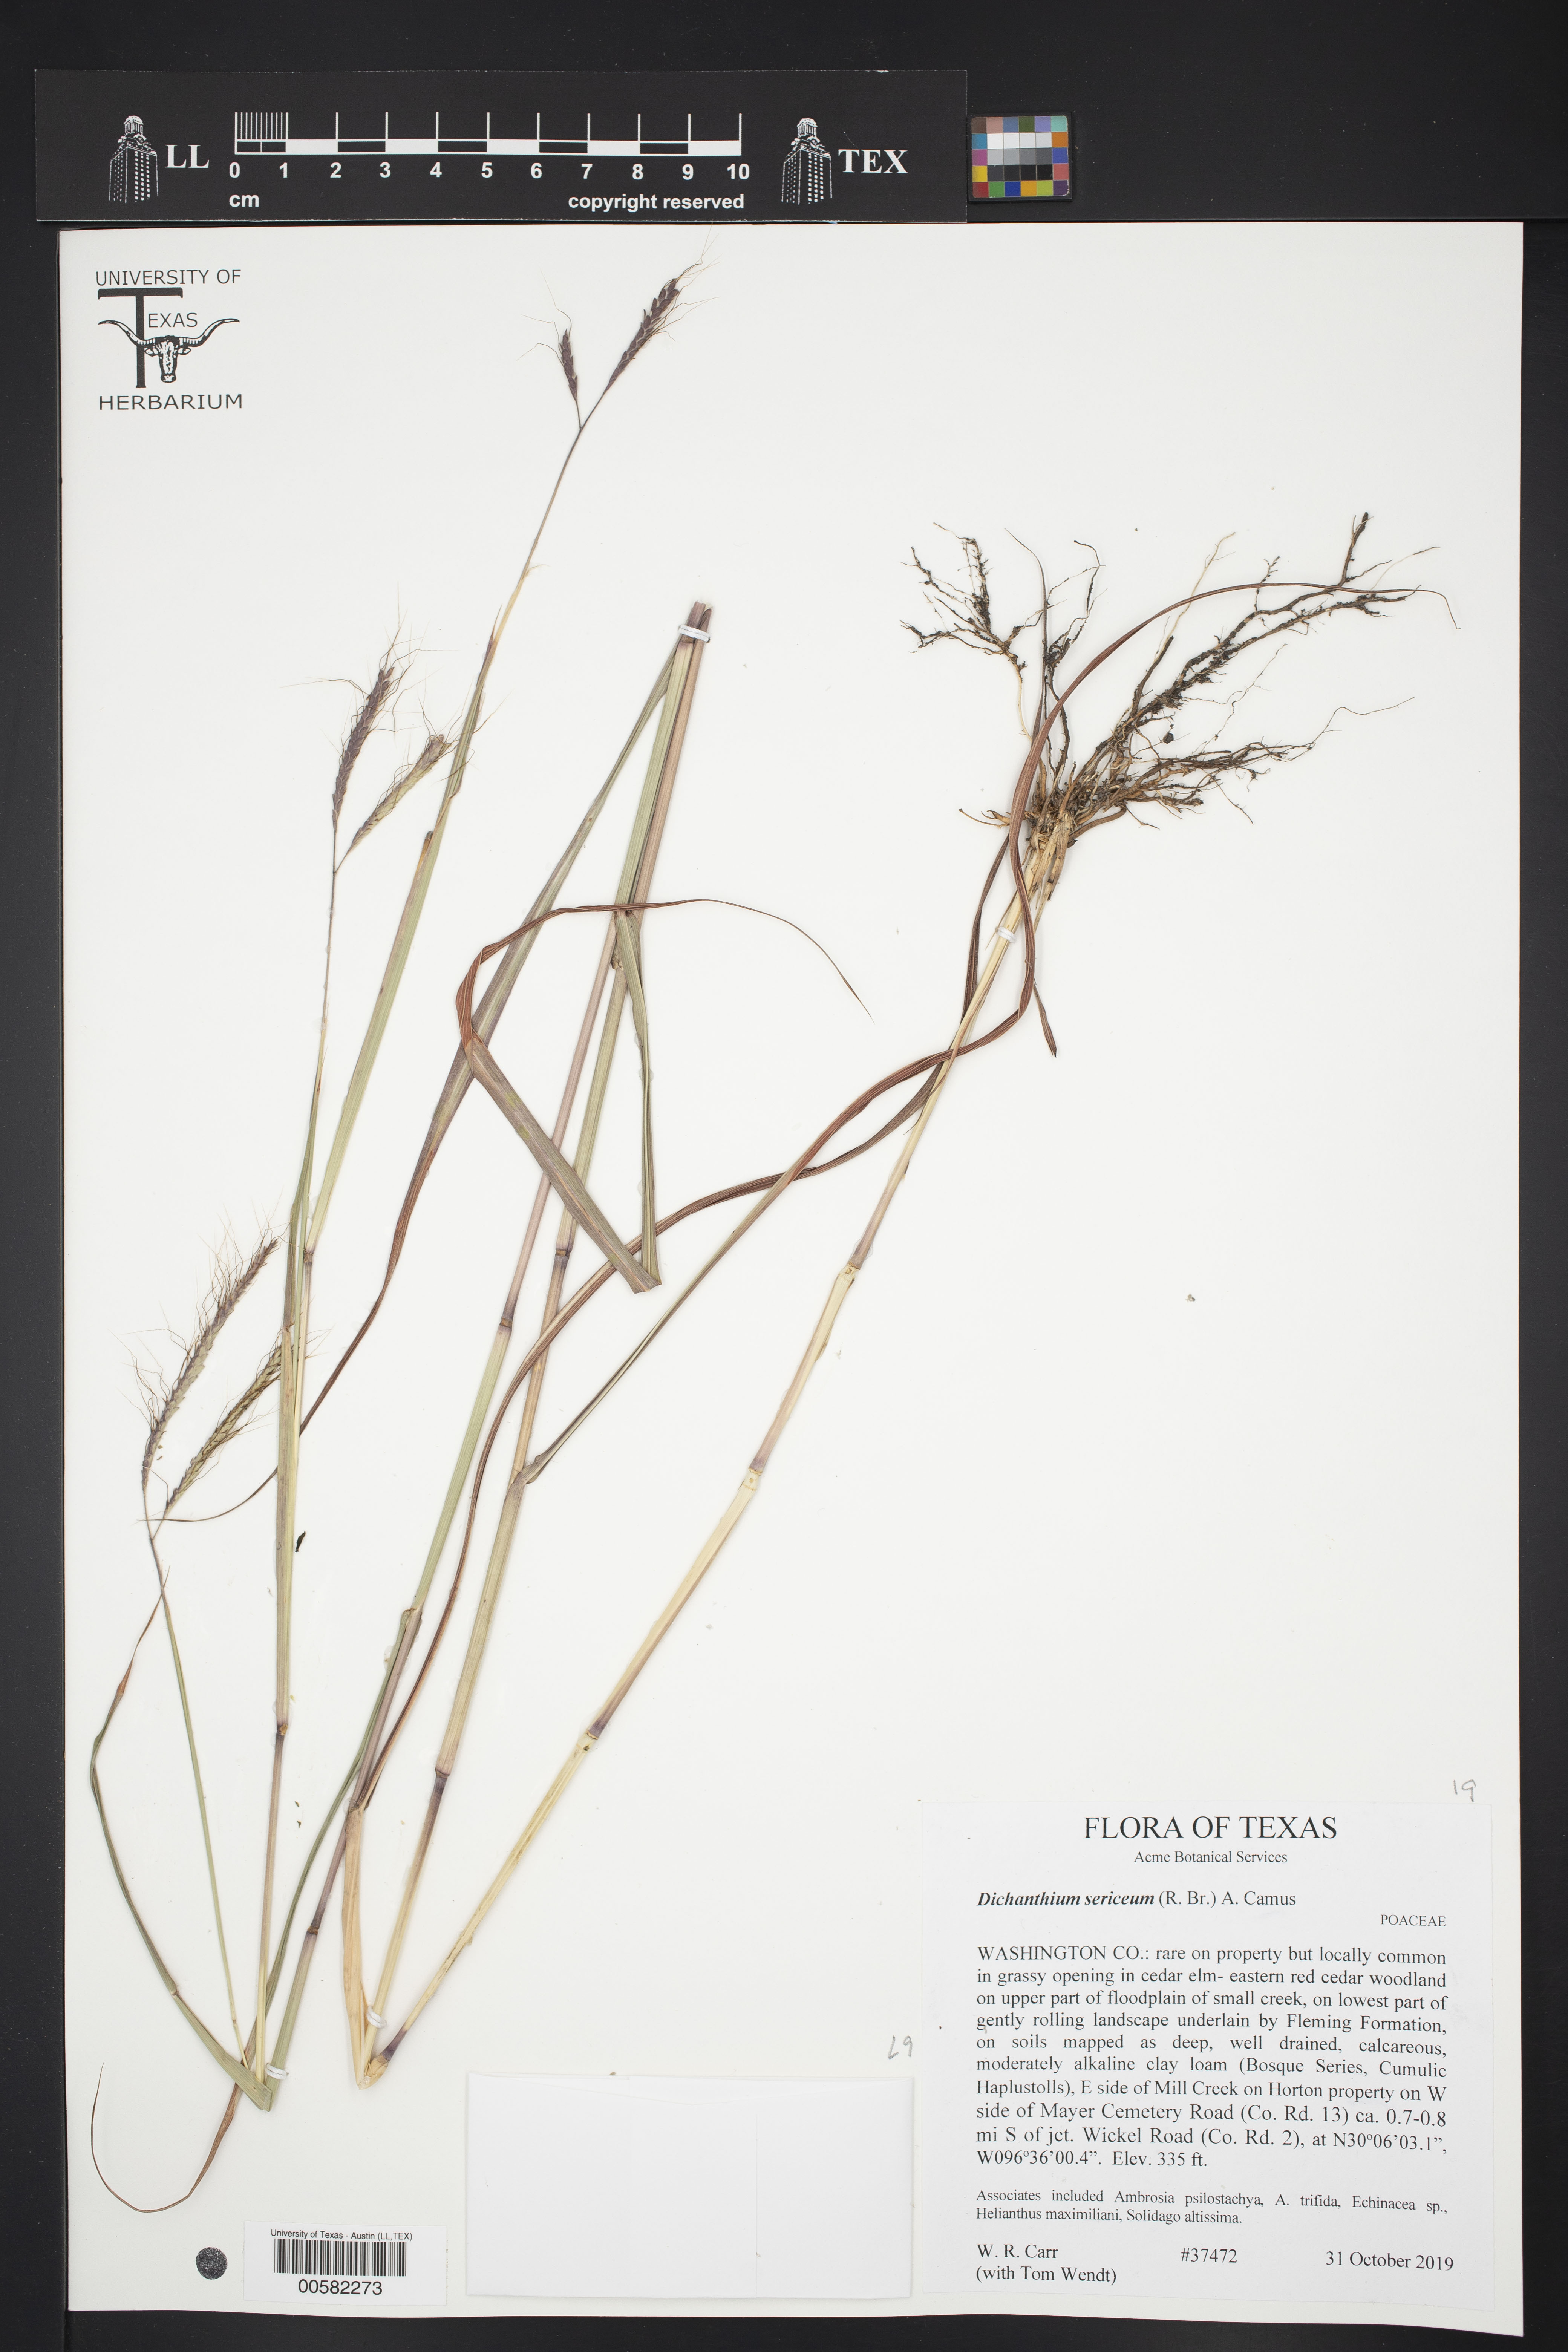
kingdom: Plantae
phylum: Tracheophyta
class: Liliopsida
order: Poales
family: Poaceae
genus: Dichanthium
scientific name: Dichanthium sericeum
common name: Silky bluestem
